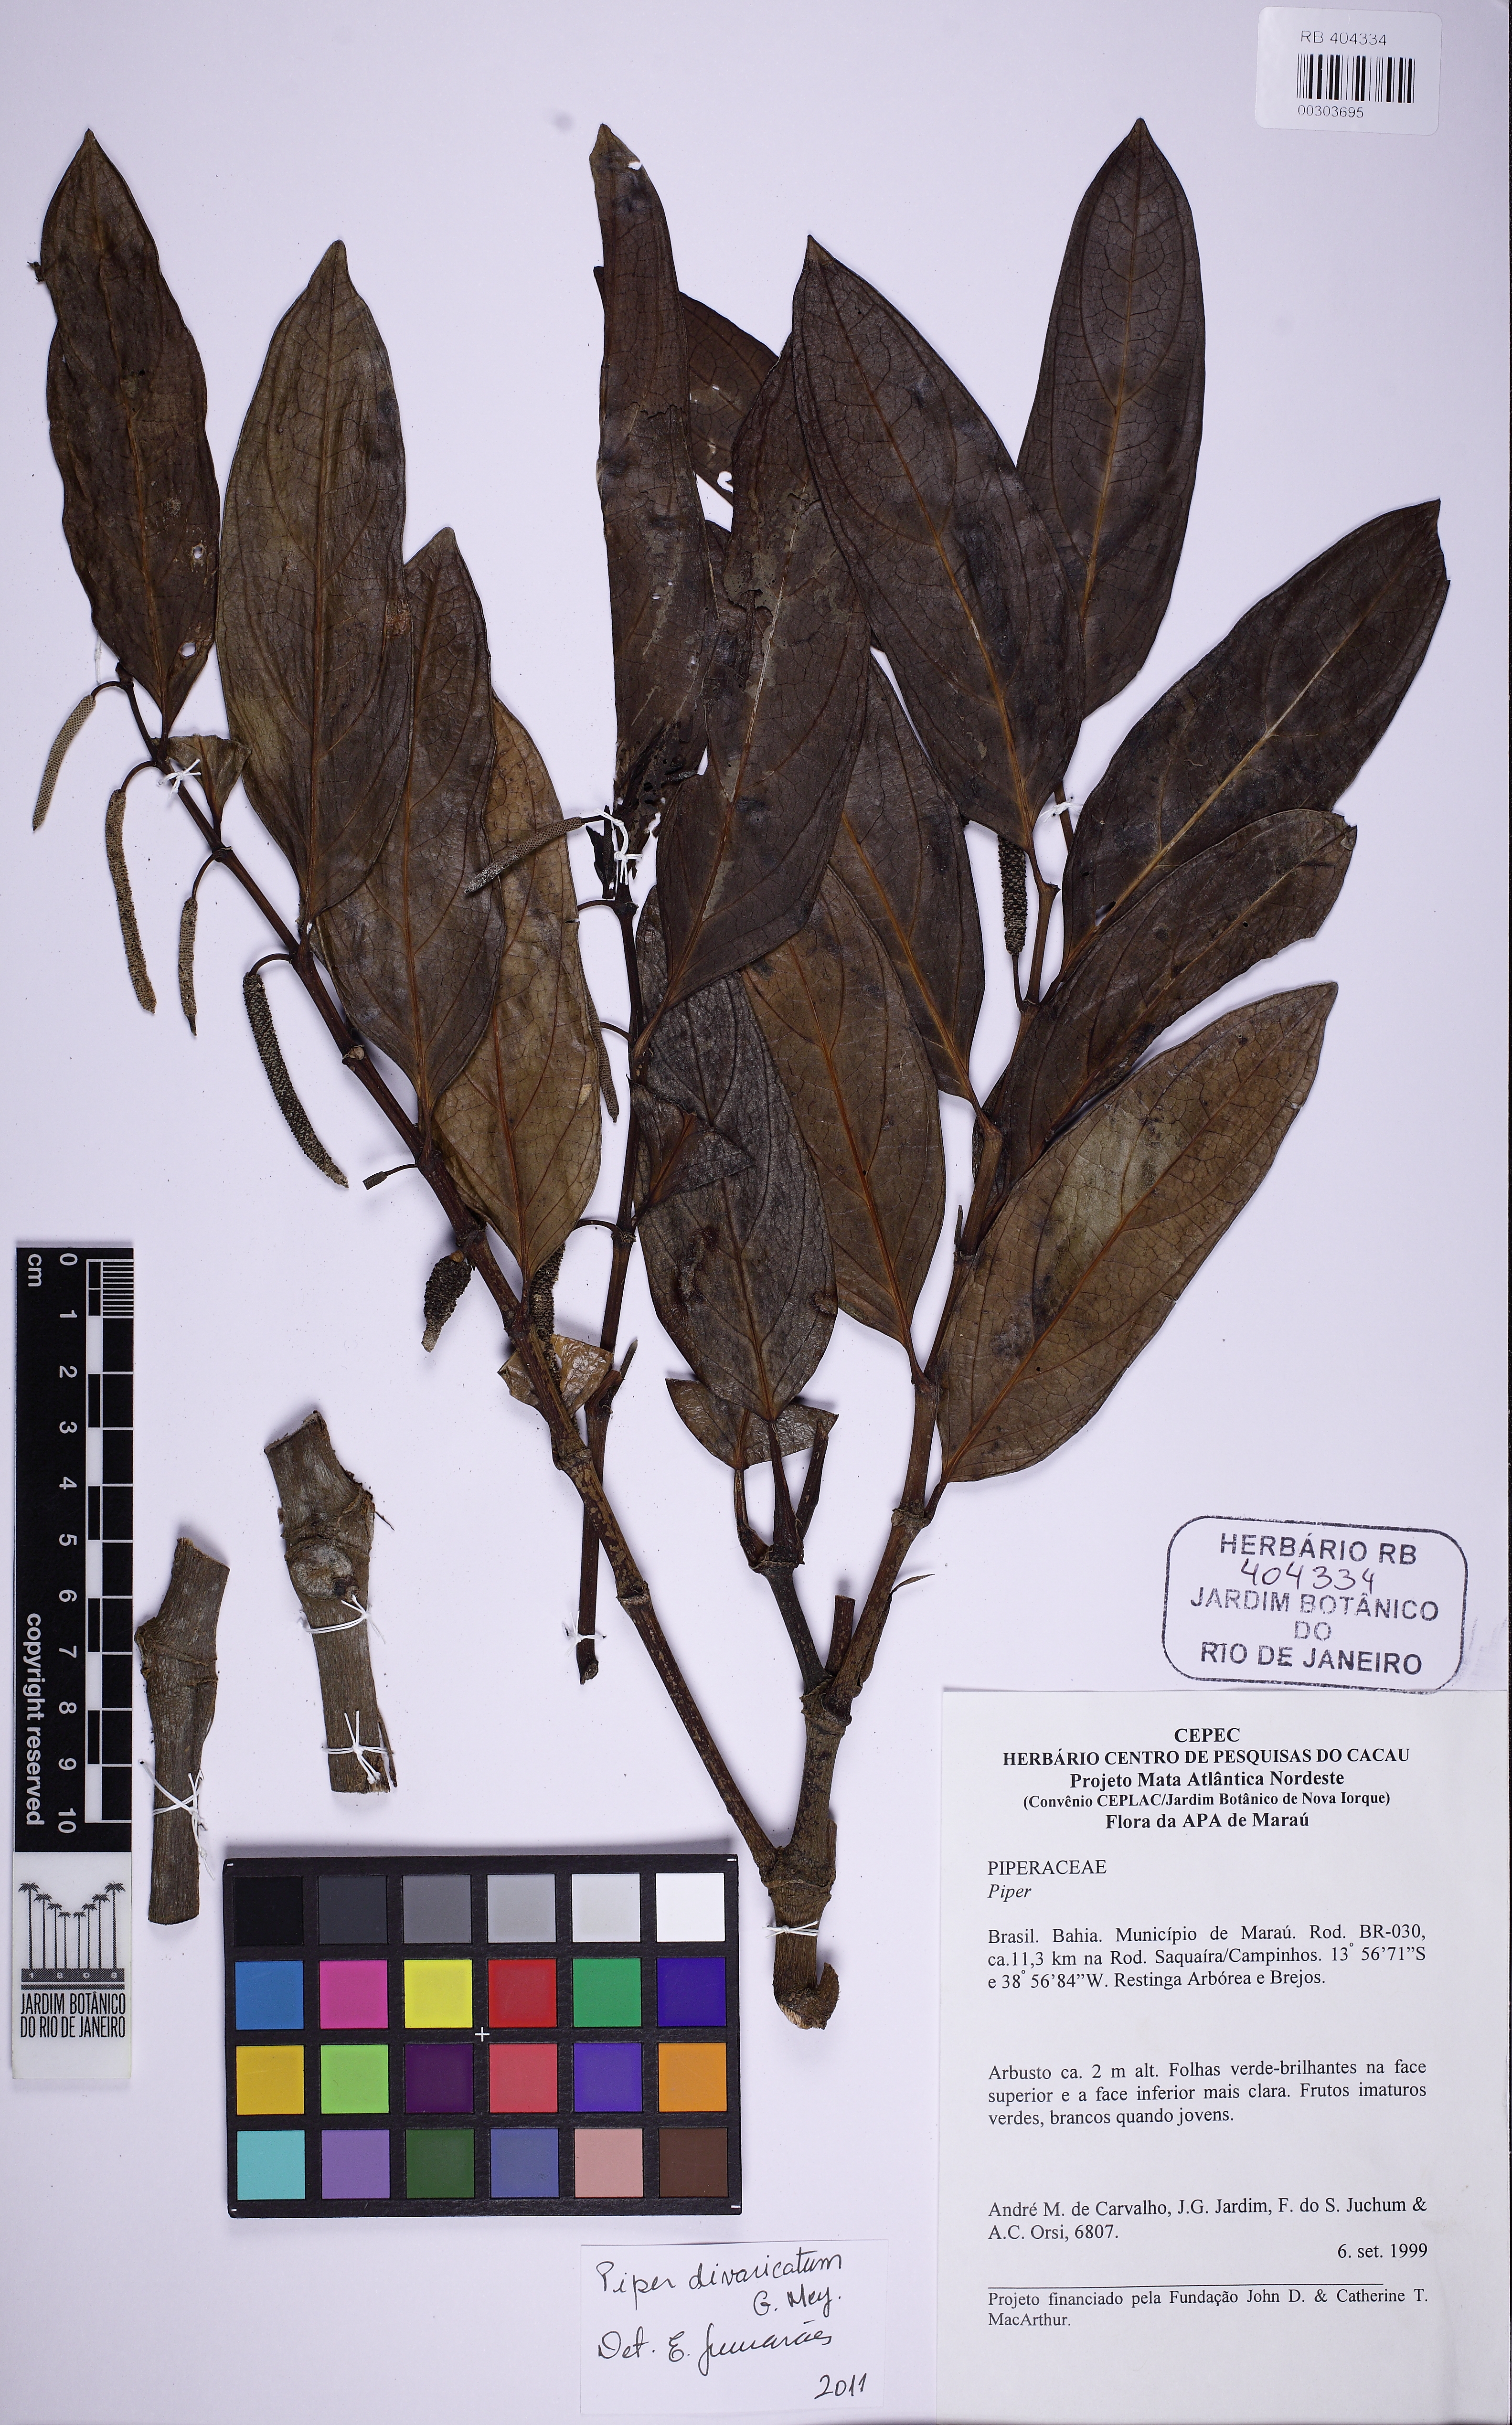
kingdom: Plantae
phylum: Tracheophyta
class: Magnoliopsida
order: Piperales
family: Piperaceae
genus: Piper
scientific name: Piper divaricatum
